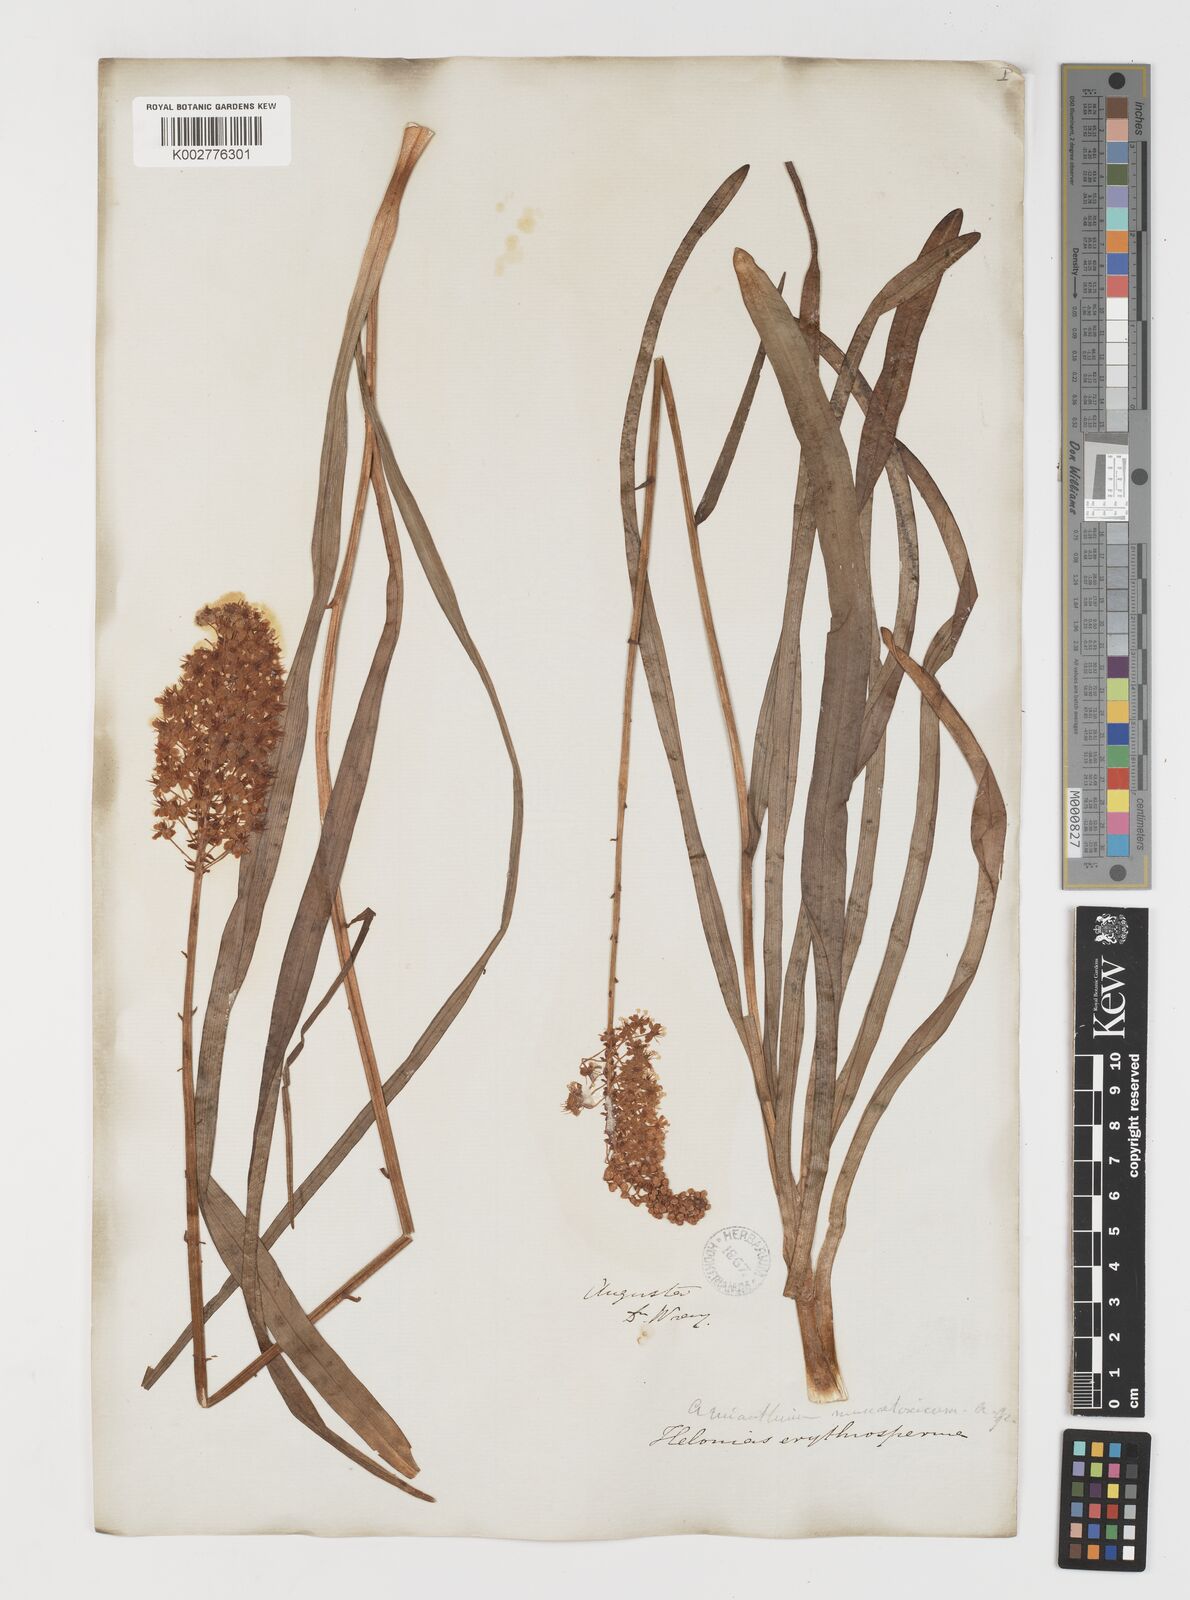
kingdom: Plantae
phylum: Tracheophyta
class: Liliopsida
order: Liliales
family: Melanthiaceae
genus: Amianthium
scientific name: Amianthium muscitoxicum
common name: Fly-poison
